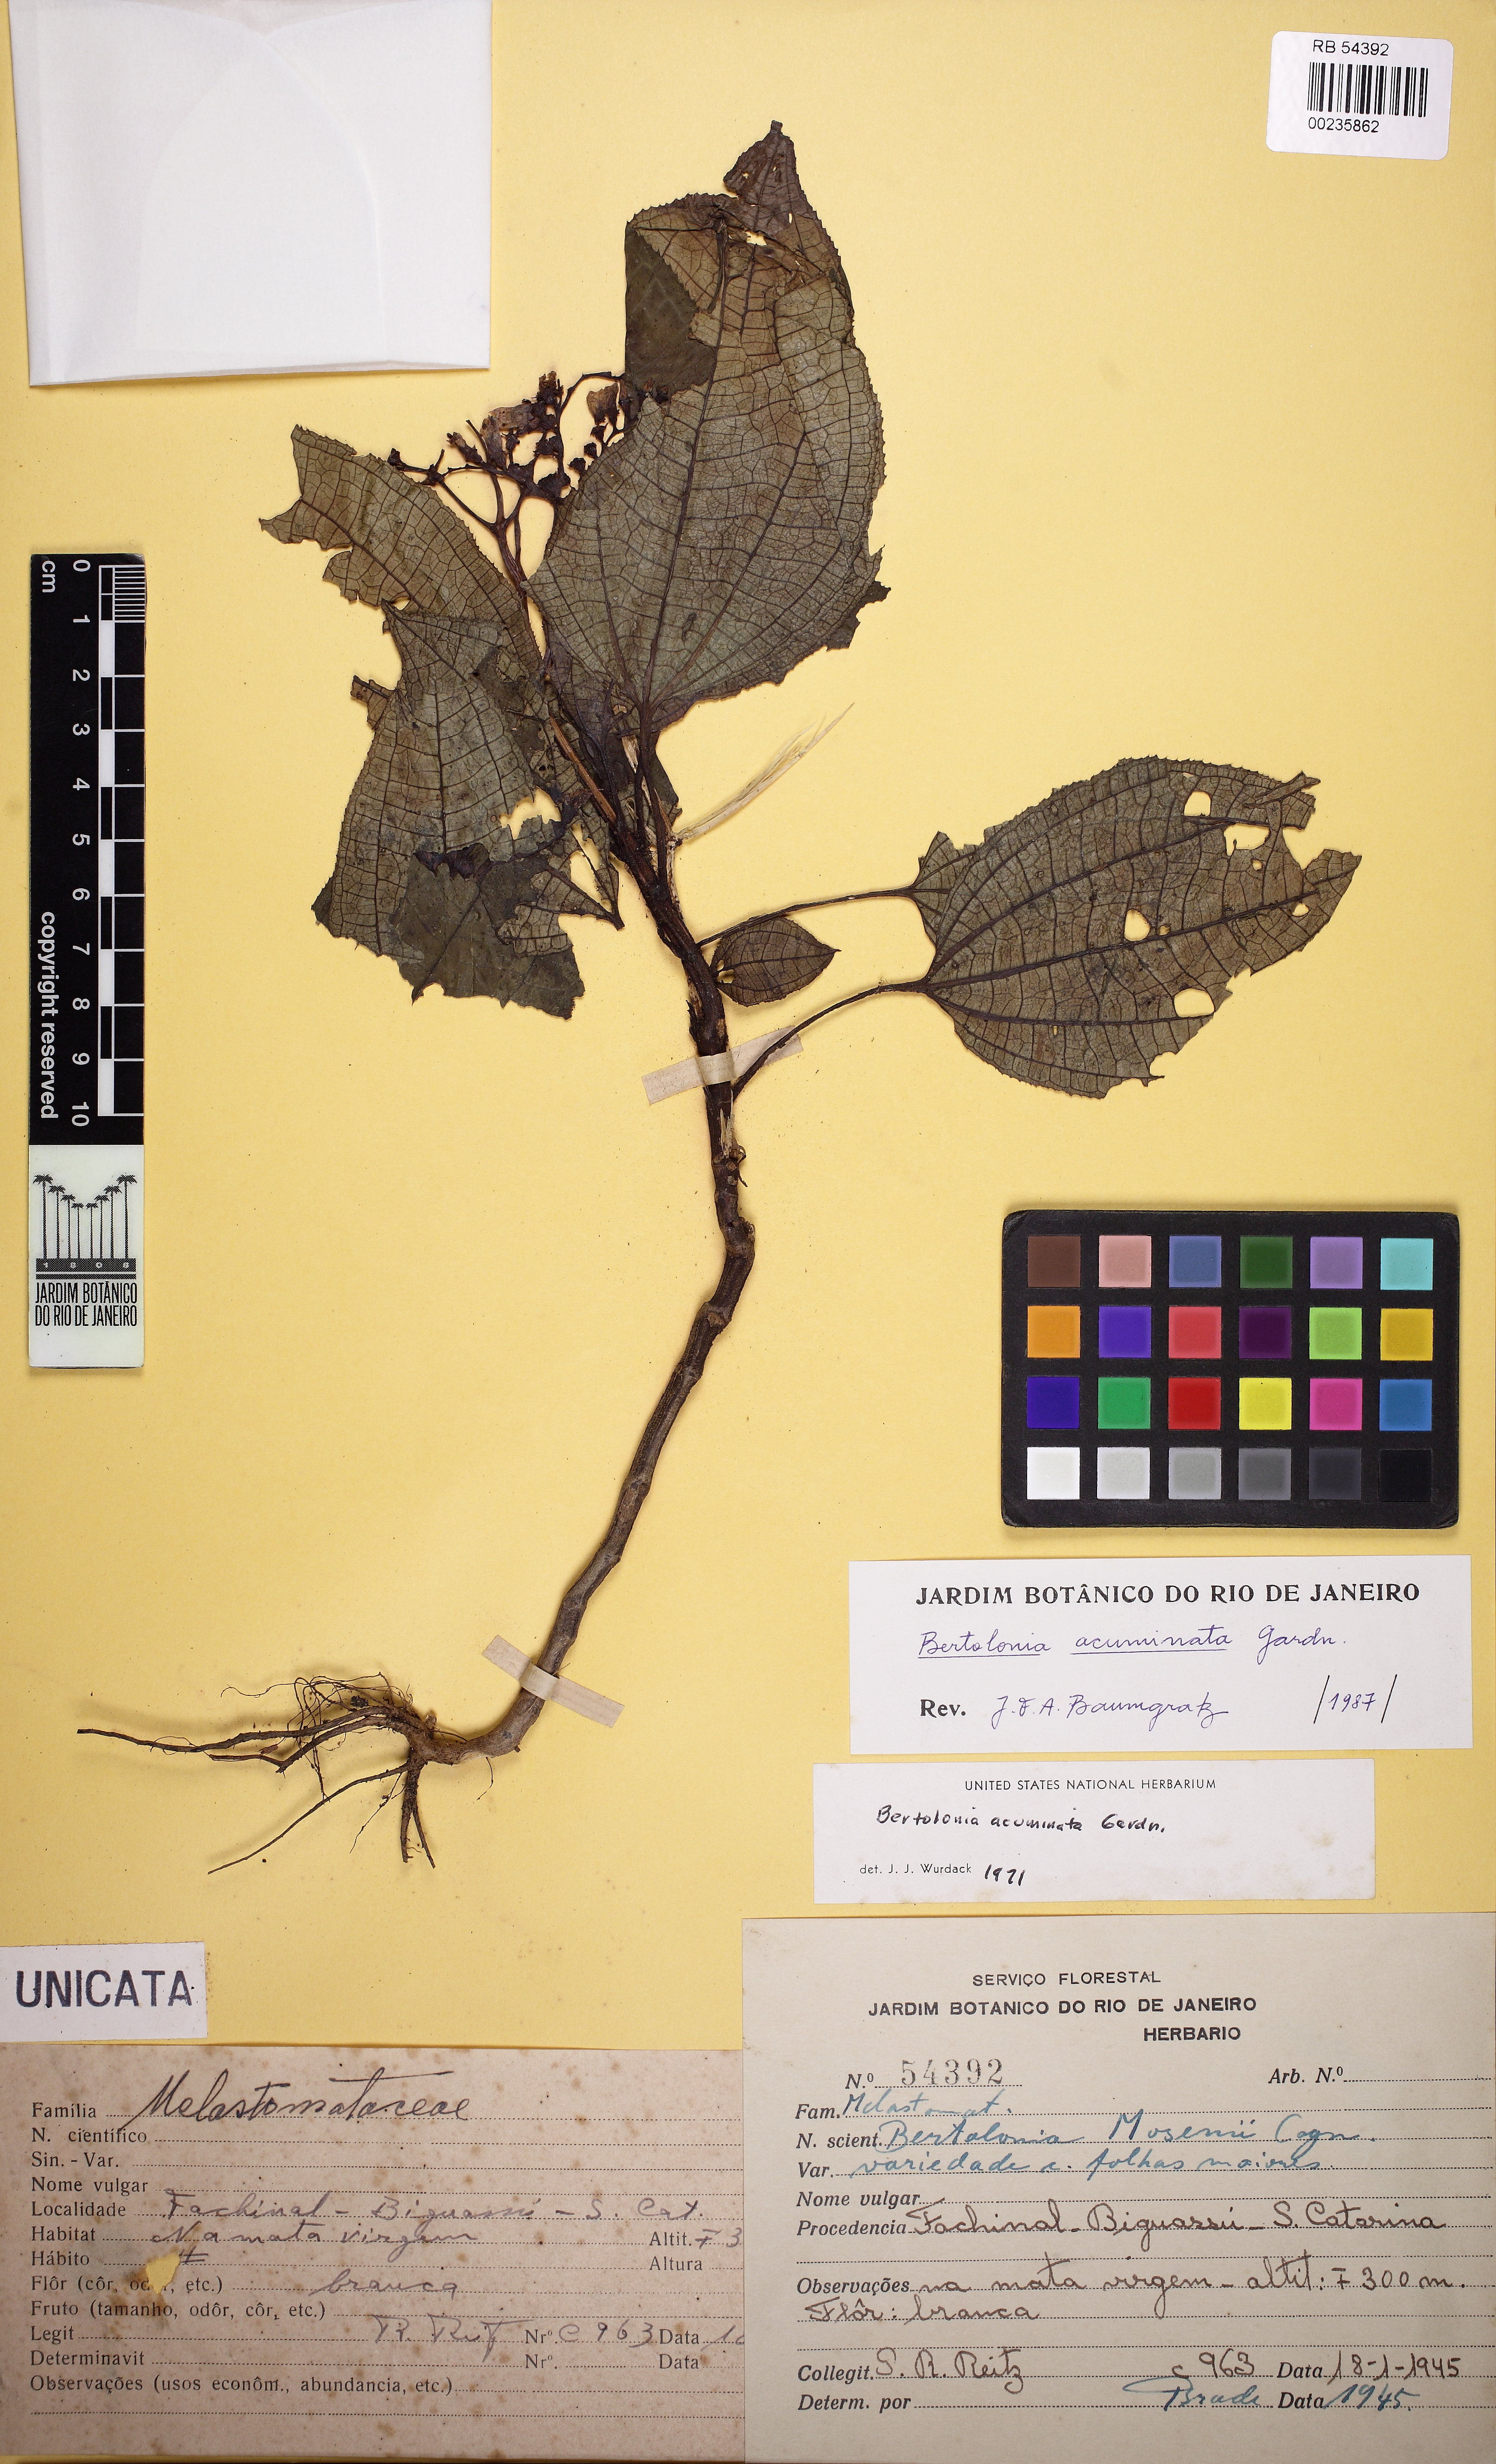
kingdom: Plantae
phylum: Tracheophyta
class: Magnoliopsida
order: Myrtales
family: Melastomataceae
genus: Bertolonia
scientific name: Bertolonia acuminata
